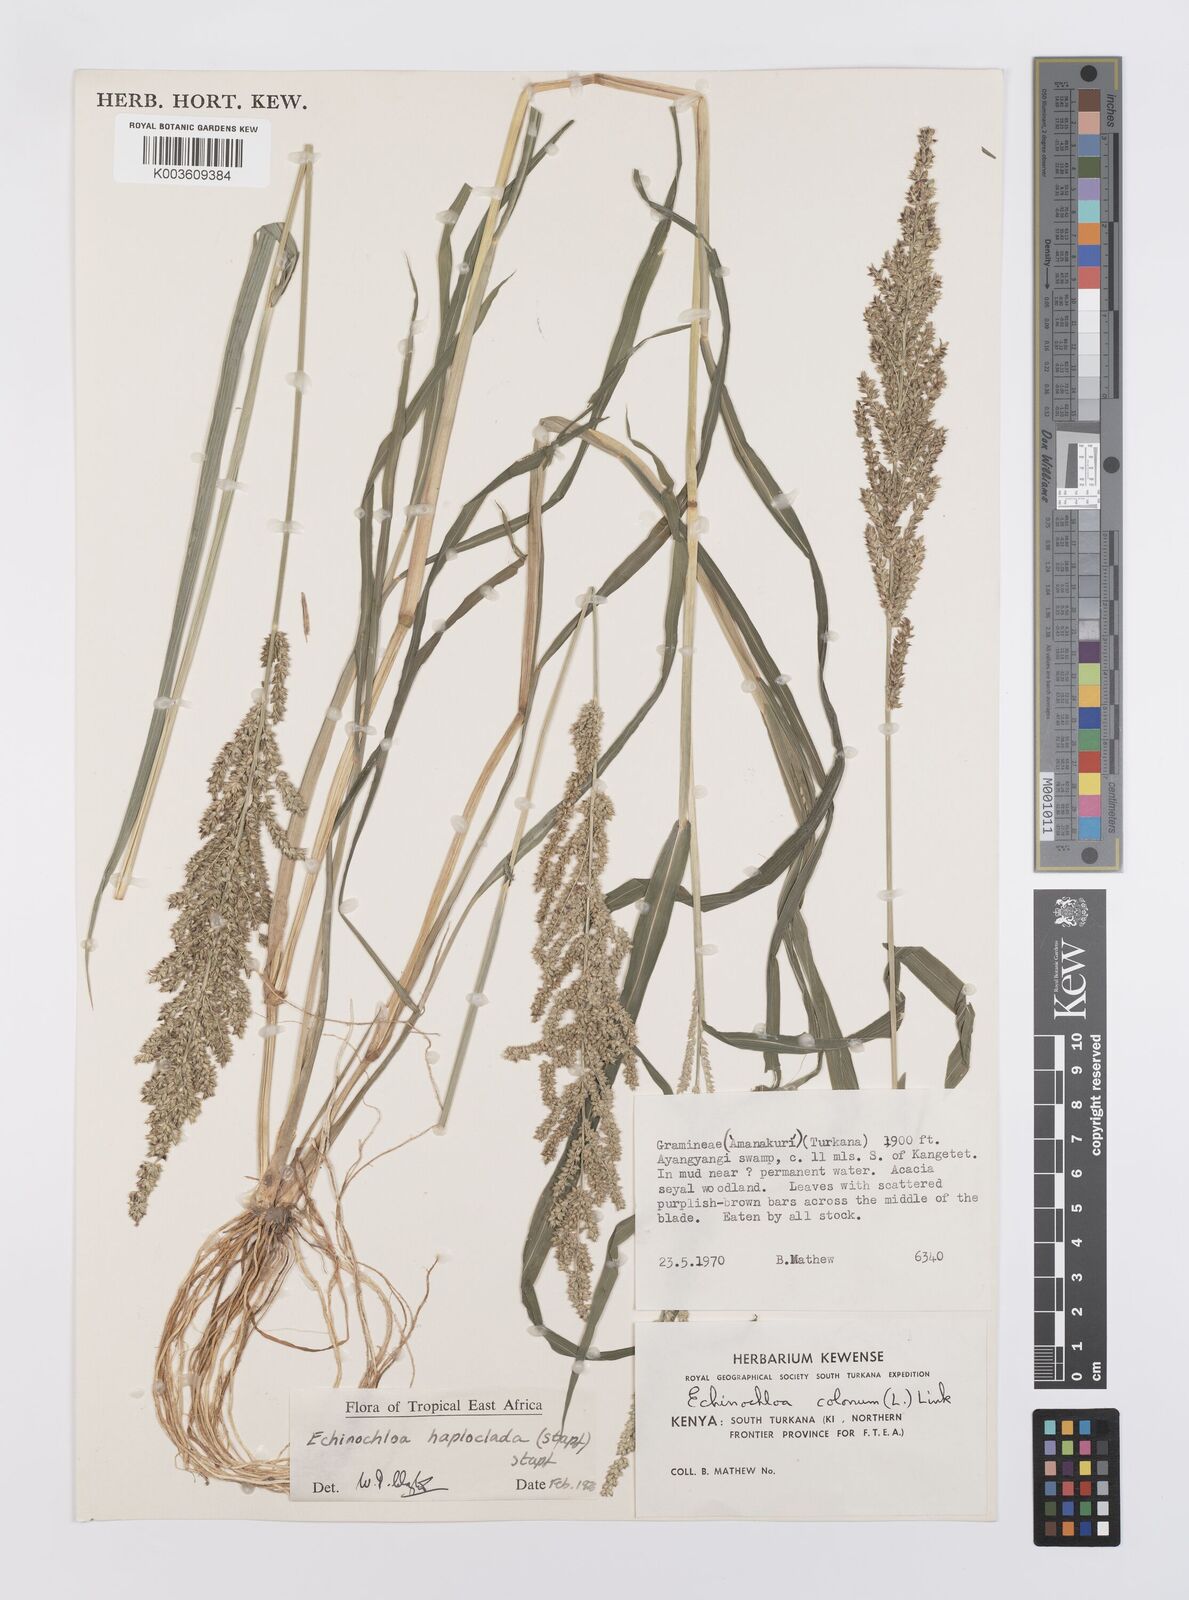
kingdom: Plantae
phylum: Tracheophyta
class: Liliopsida
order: Poales
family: Poaceae
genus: Echinochloa
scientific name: Echinochloa haploclada
